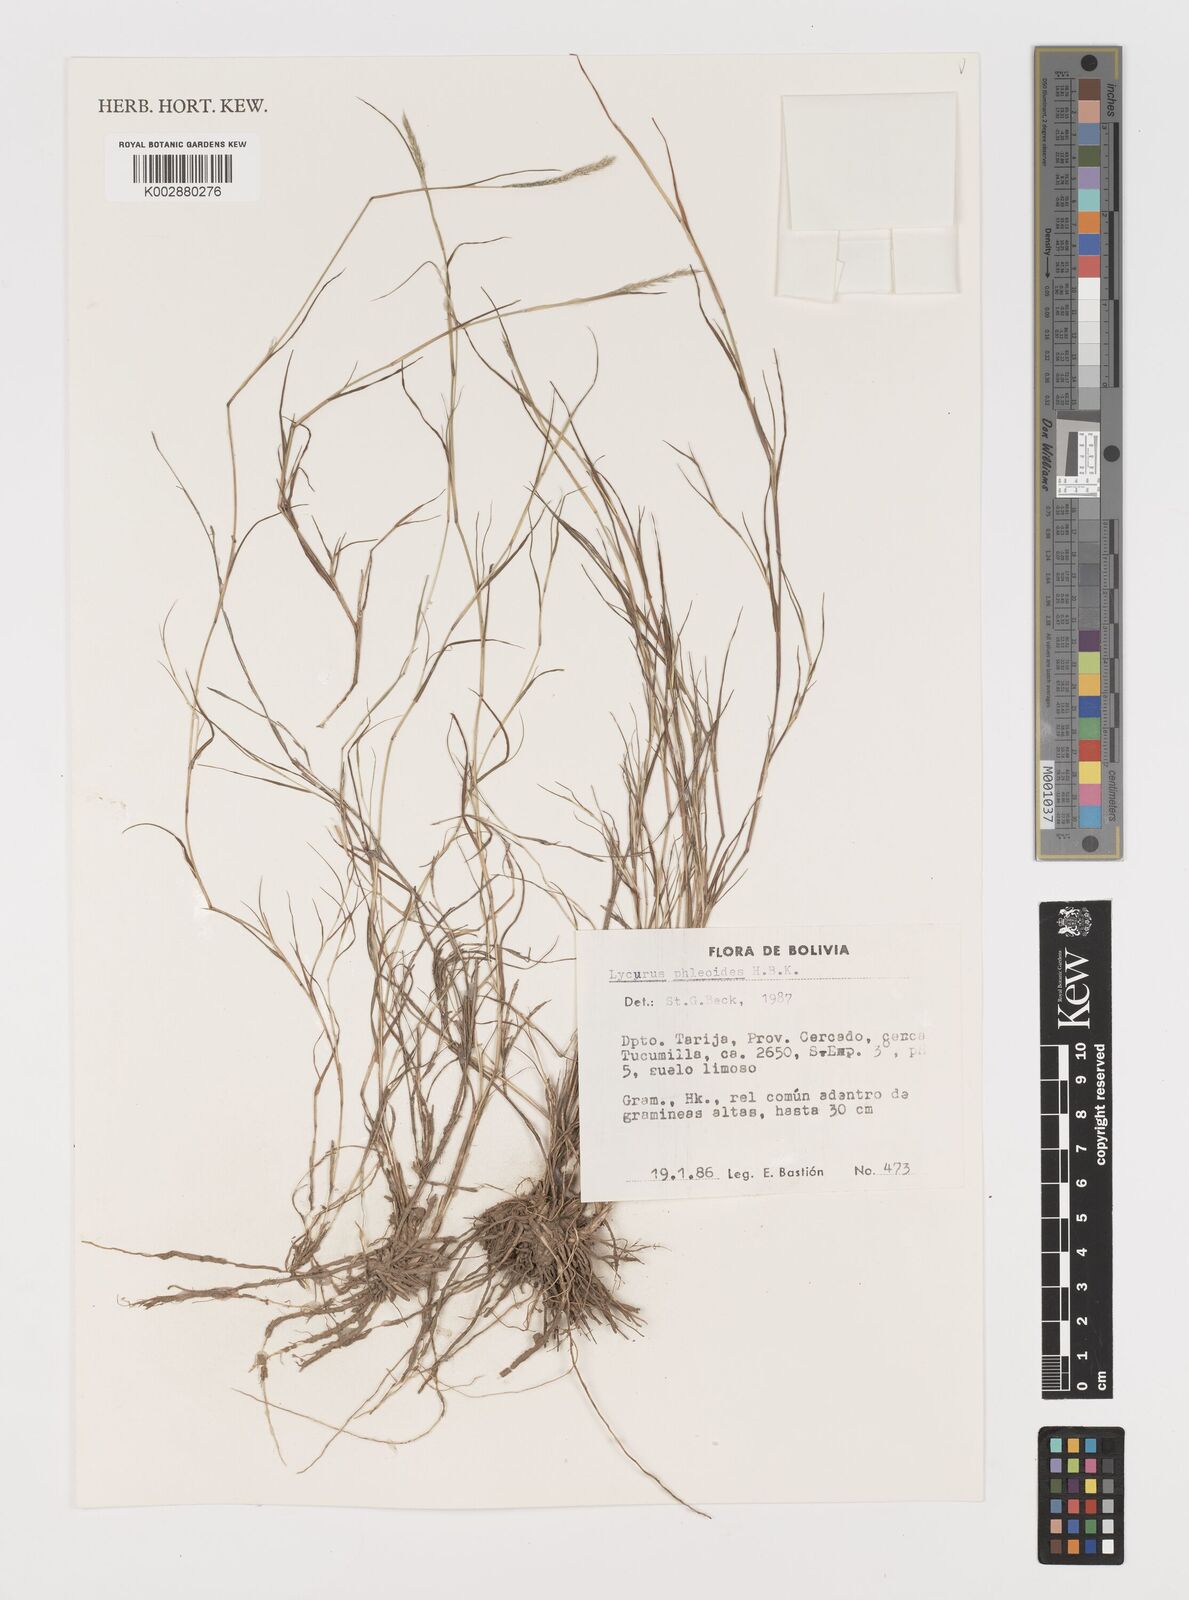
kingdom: Plantae
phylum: Tracheophyta
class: Liliopsida
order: Poales
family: Poaceae
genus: Muhlenbergia
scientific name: Muhlenbergia phalaroides
